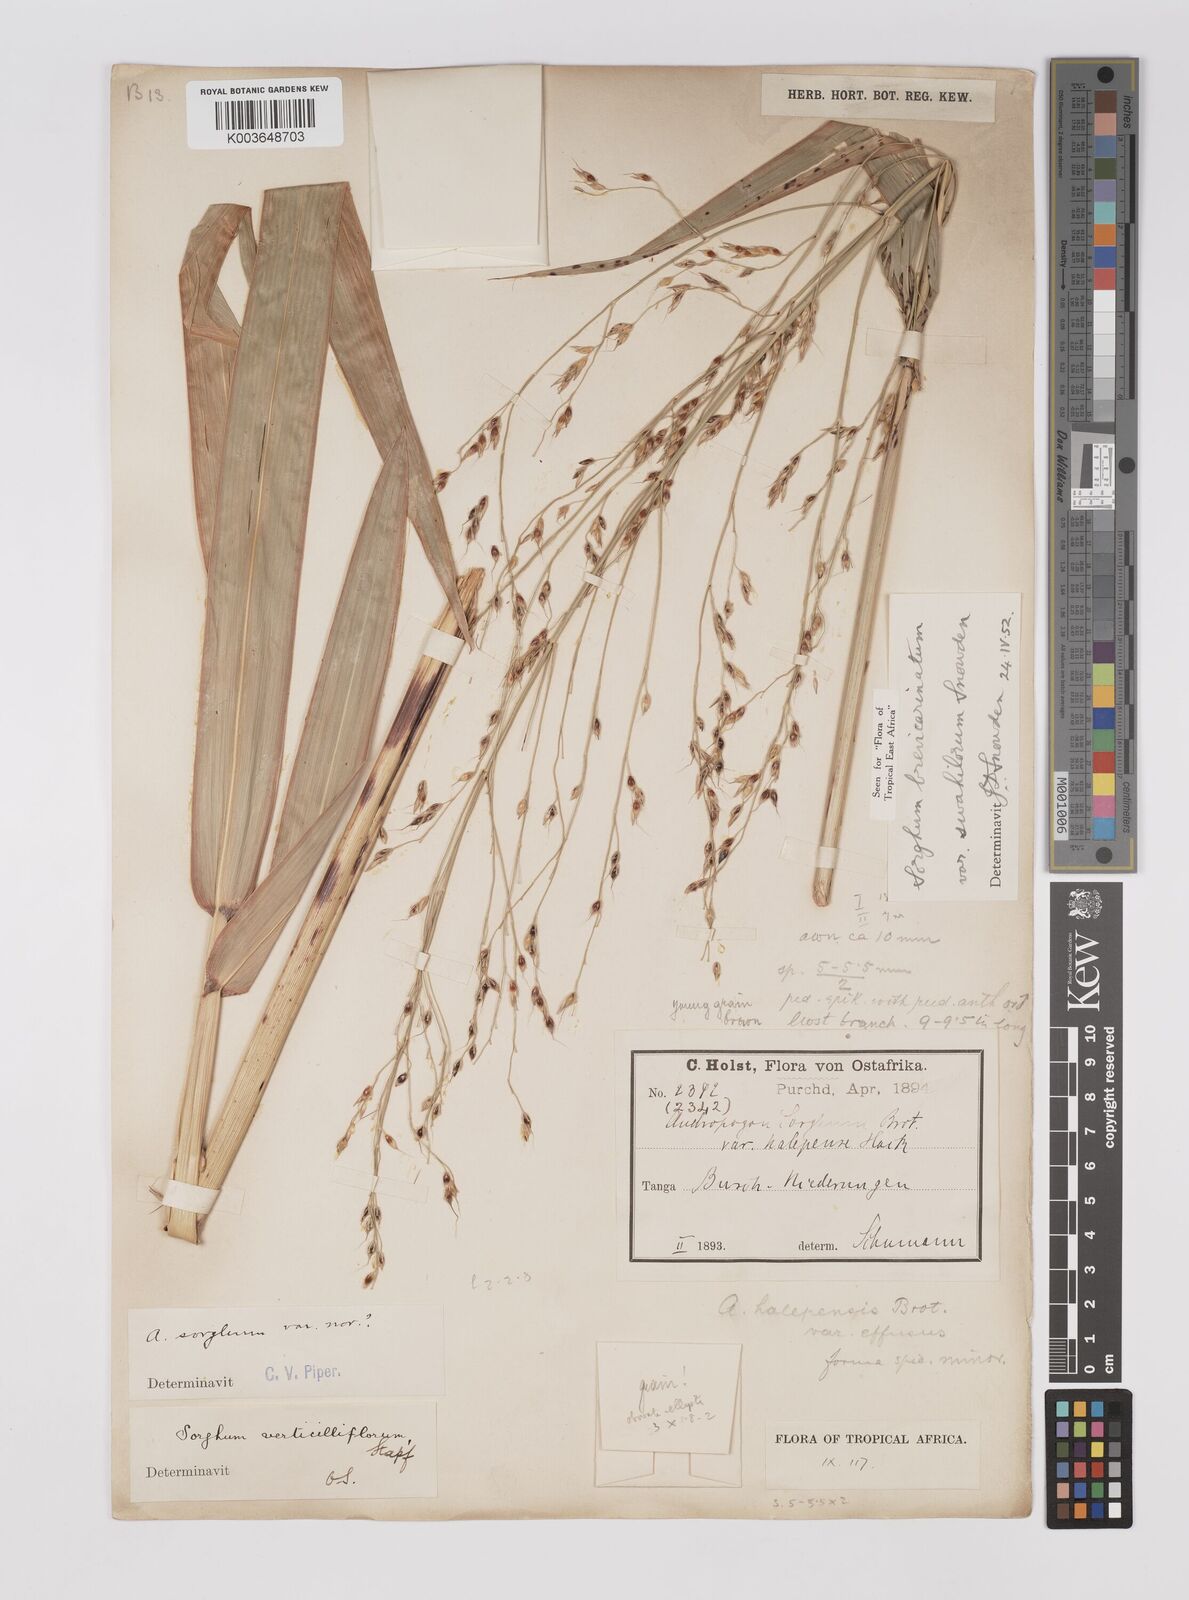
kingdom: Plantae
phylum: Tracheophyta
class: Liliopsida
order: Poales
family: Poaceae
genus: Sorghum
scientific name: Sorghum arundinaceum
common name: Sorghum
